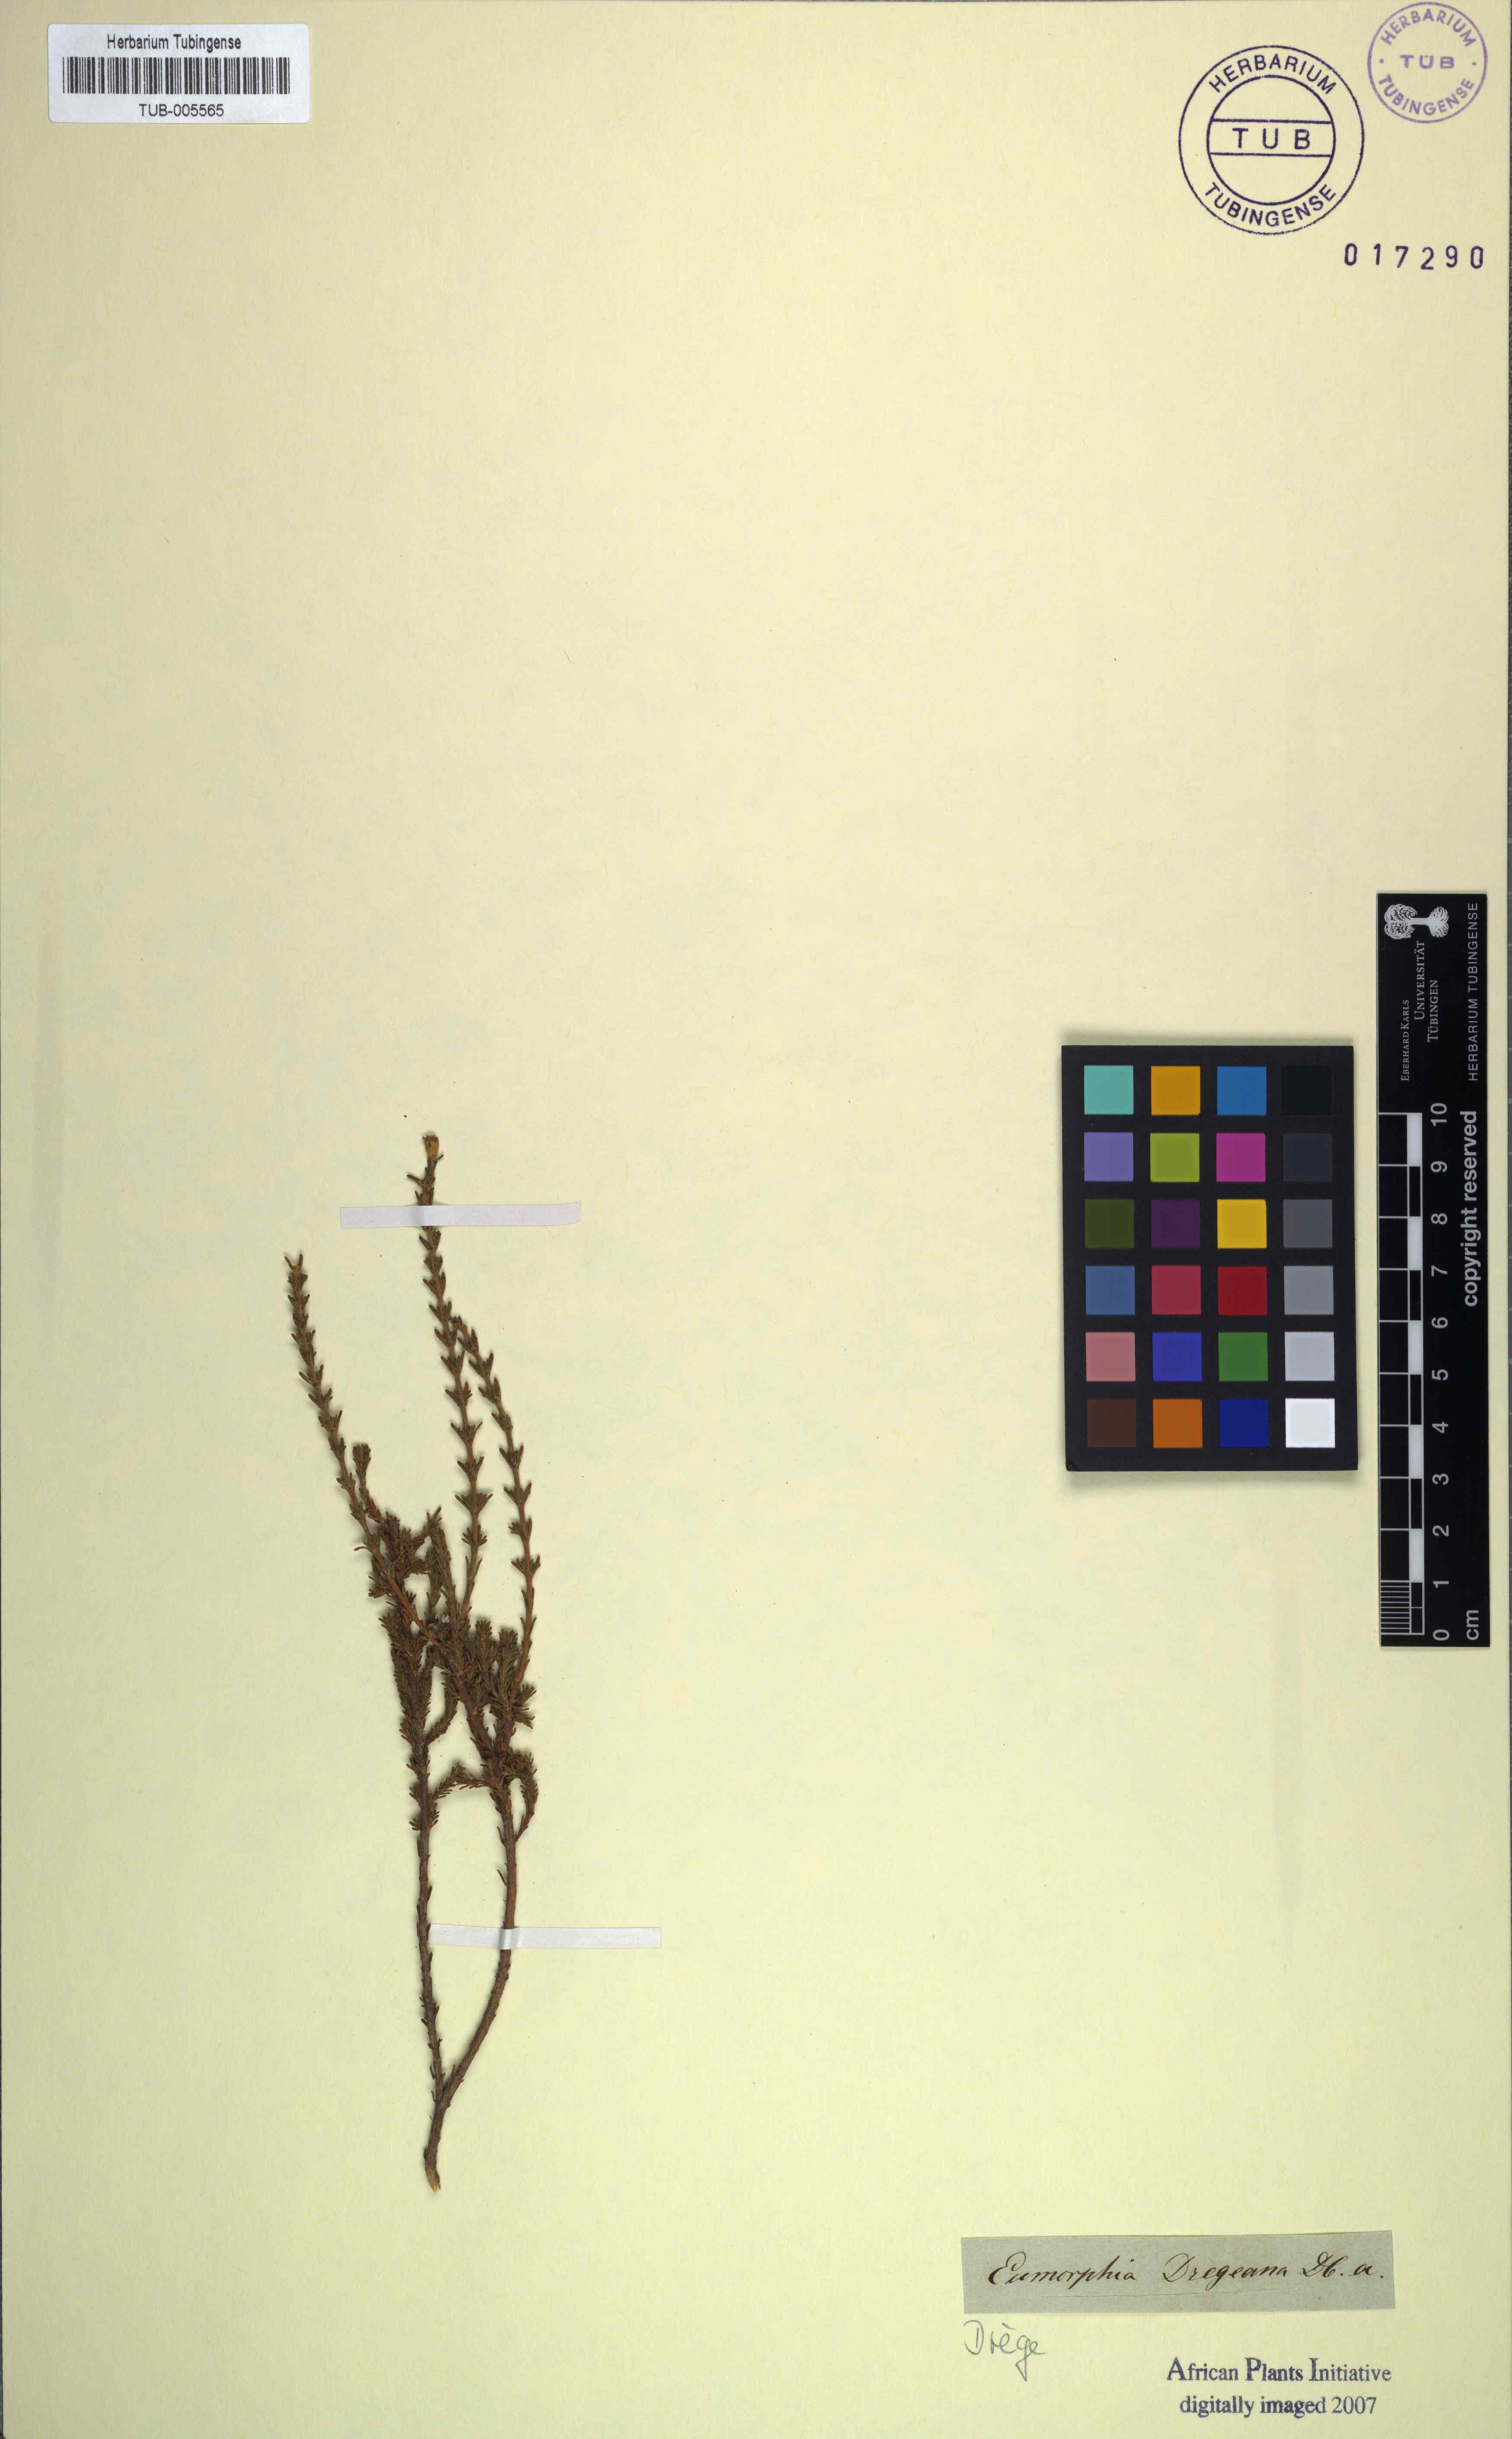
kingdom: Plantae
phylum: Tracheophyta
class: Magnoliopsida
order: Asterales
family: Asteraceae
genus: Eumorphia
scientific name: Eumorphia dregeana
